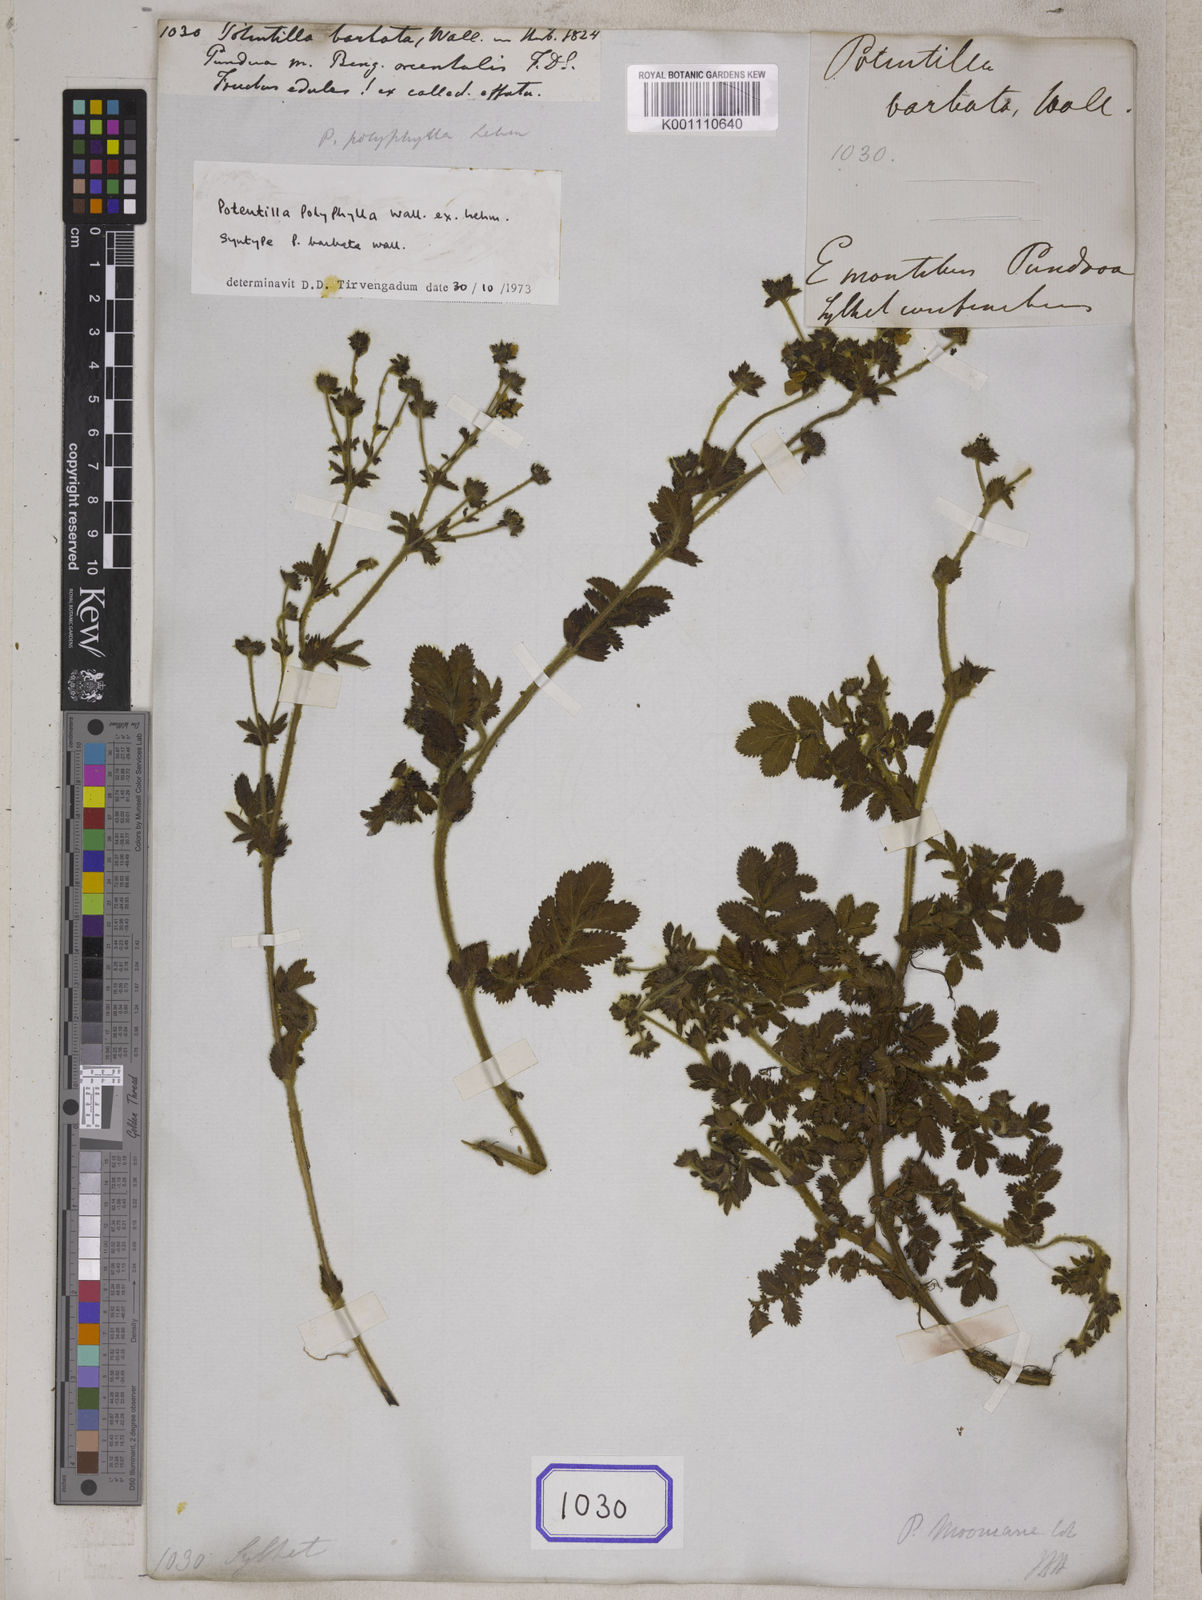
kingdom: Plantae
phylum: Tracheophyta
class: Magnoliopsida
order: Rosales
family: Rosaceae
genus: Argentina
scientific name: Argentina polyphylla
